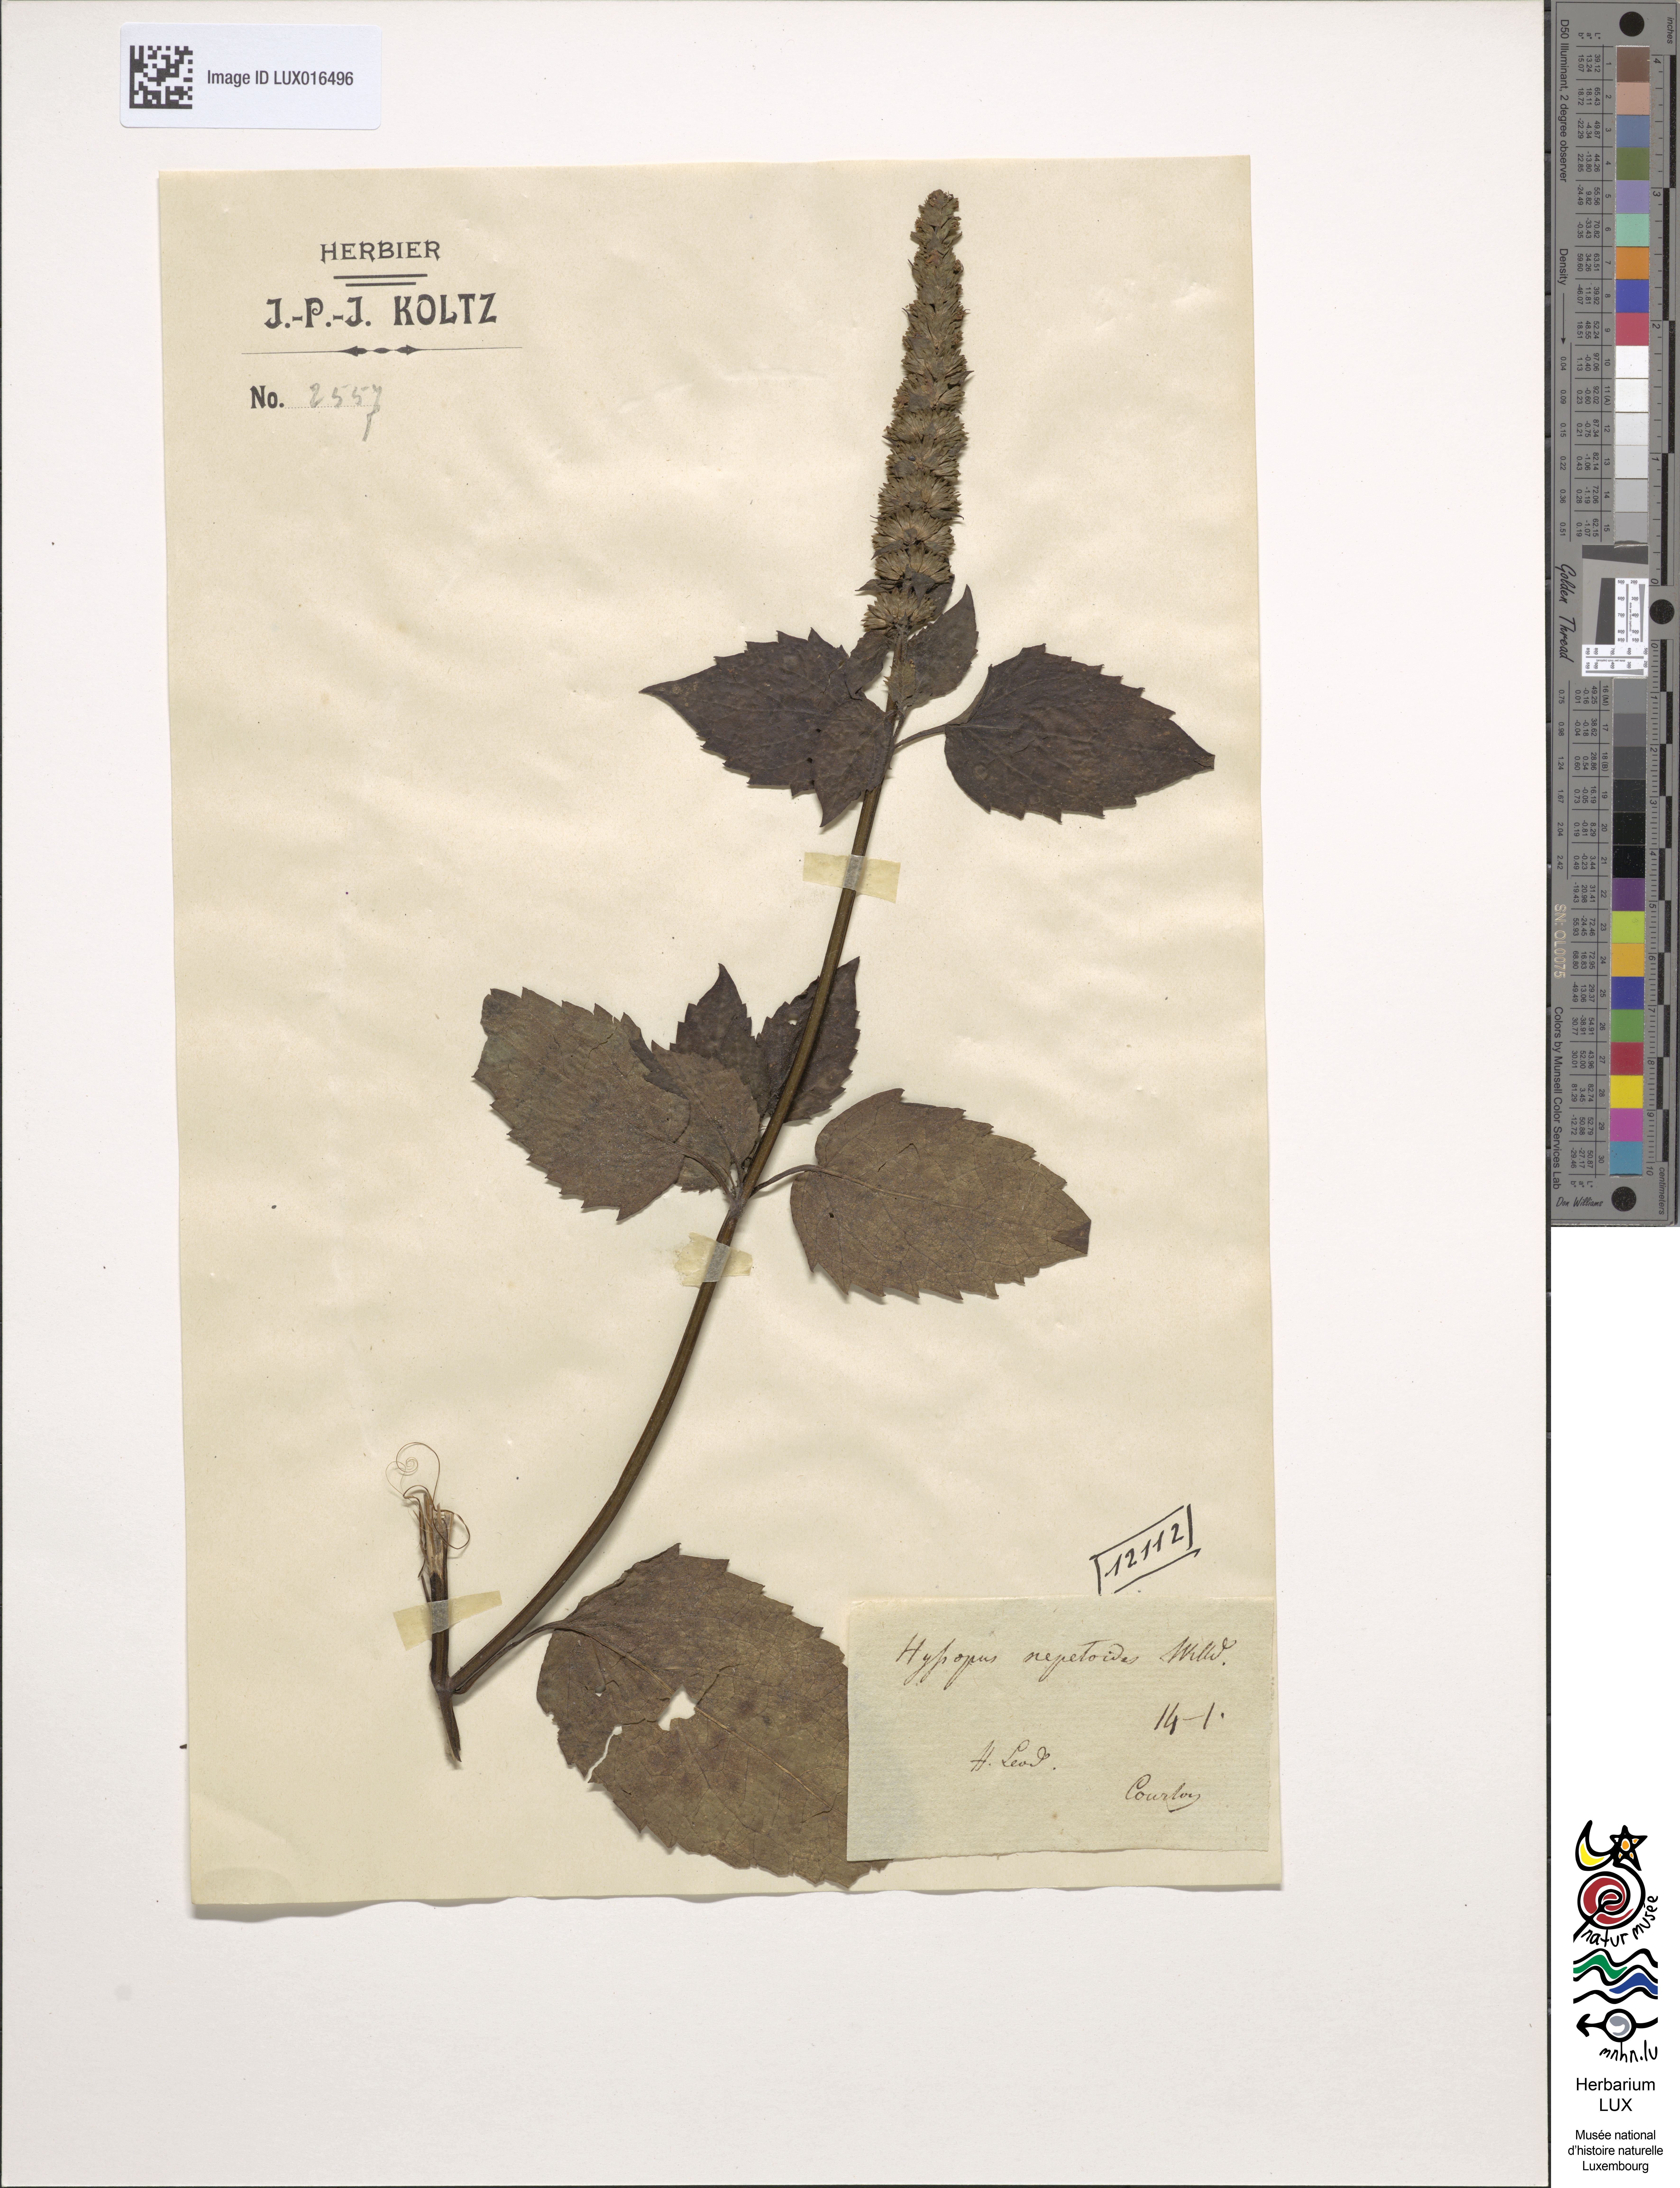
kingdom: Plantae
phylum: Tracheophyta
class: Magnoliopsida
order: Lamiales
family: Lamiaceae
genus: Hyssopus
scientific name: Hyssopus nepetoides
